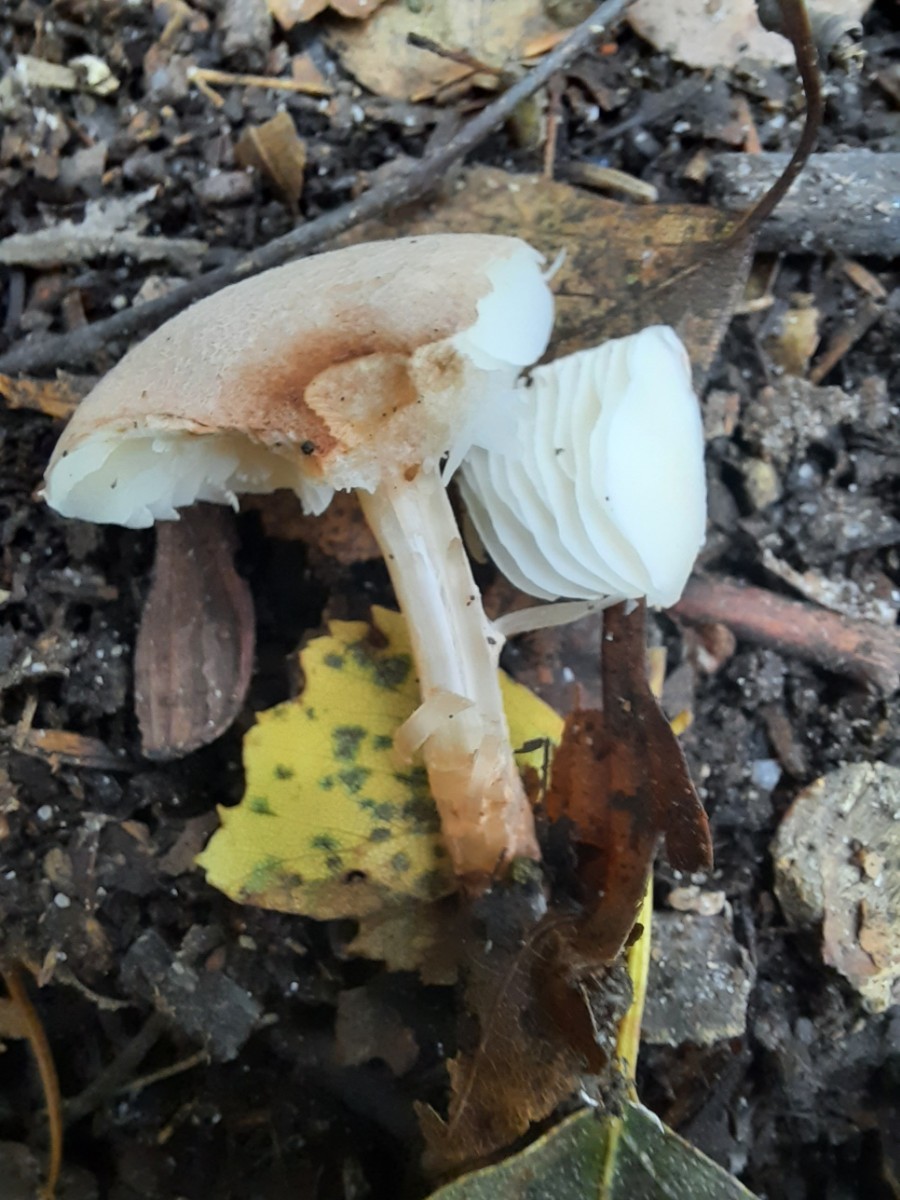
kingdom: Fungi
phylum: Basidiomycota
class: Agaricomycetes
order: Agaricales
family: Agaricaceae
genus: Lepiota
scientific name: Lepiota subincarnata
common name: kødfarvet parasolhat
